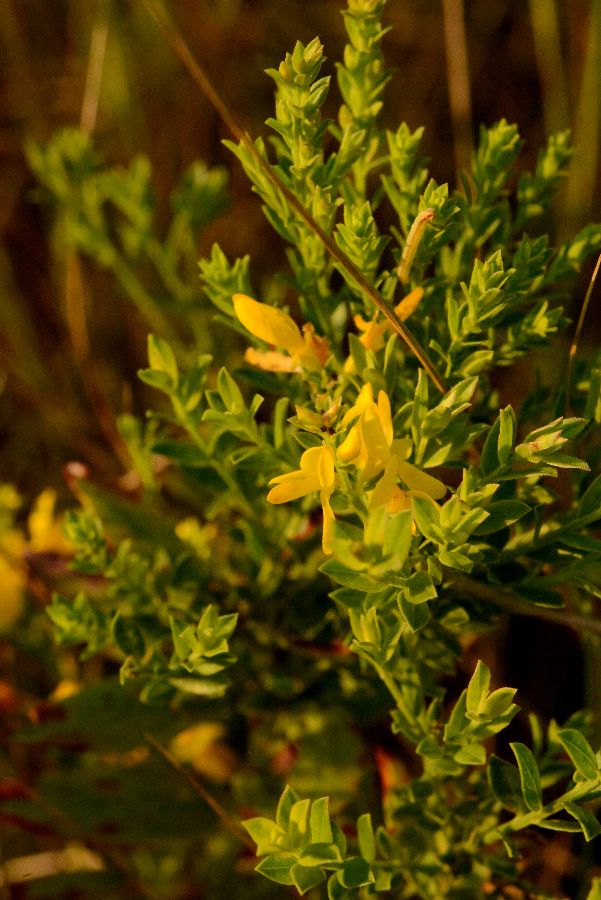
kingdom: Plantae
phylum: Tracheophyta
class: Magnoliopsida
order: Fabales
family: Fabaceae
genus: Genista
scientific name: Genista tinctoria
